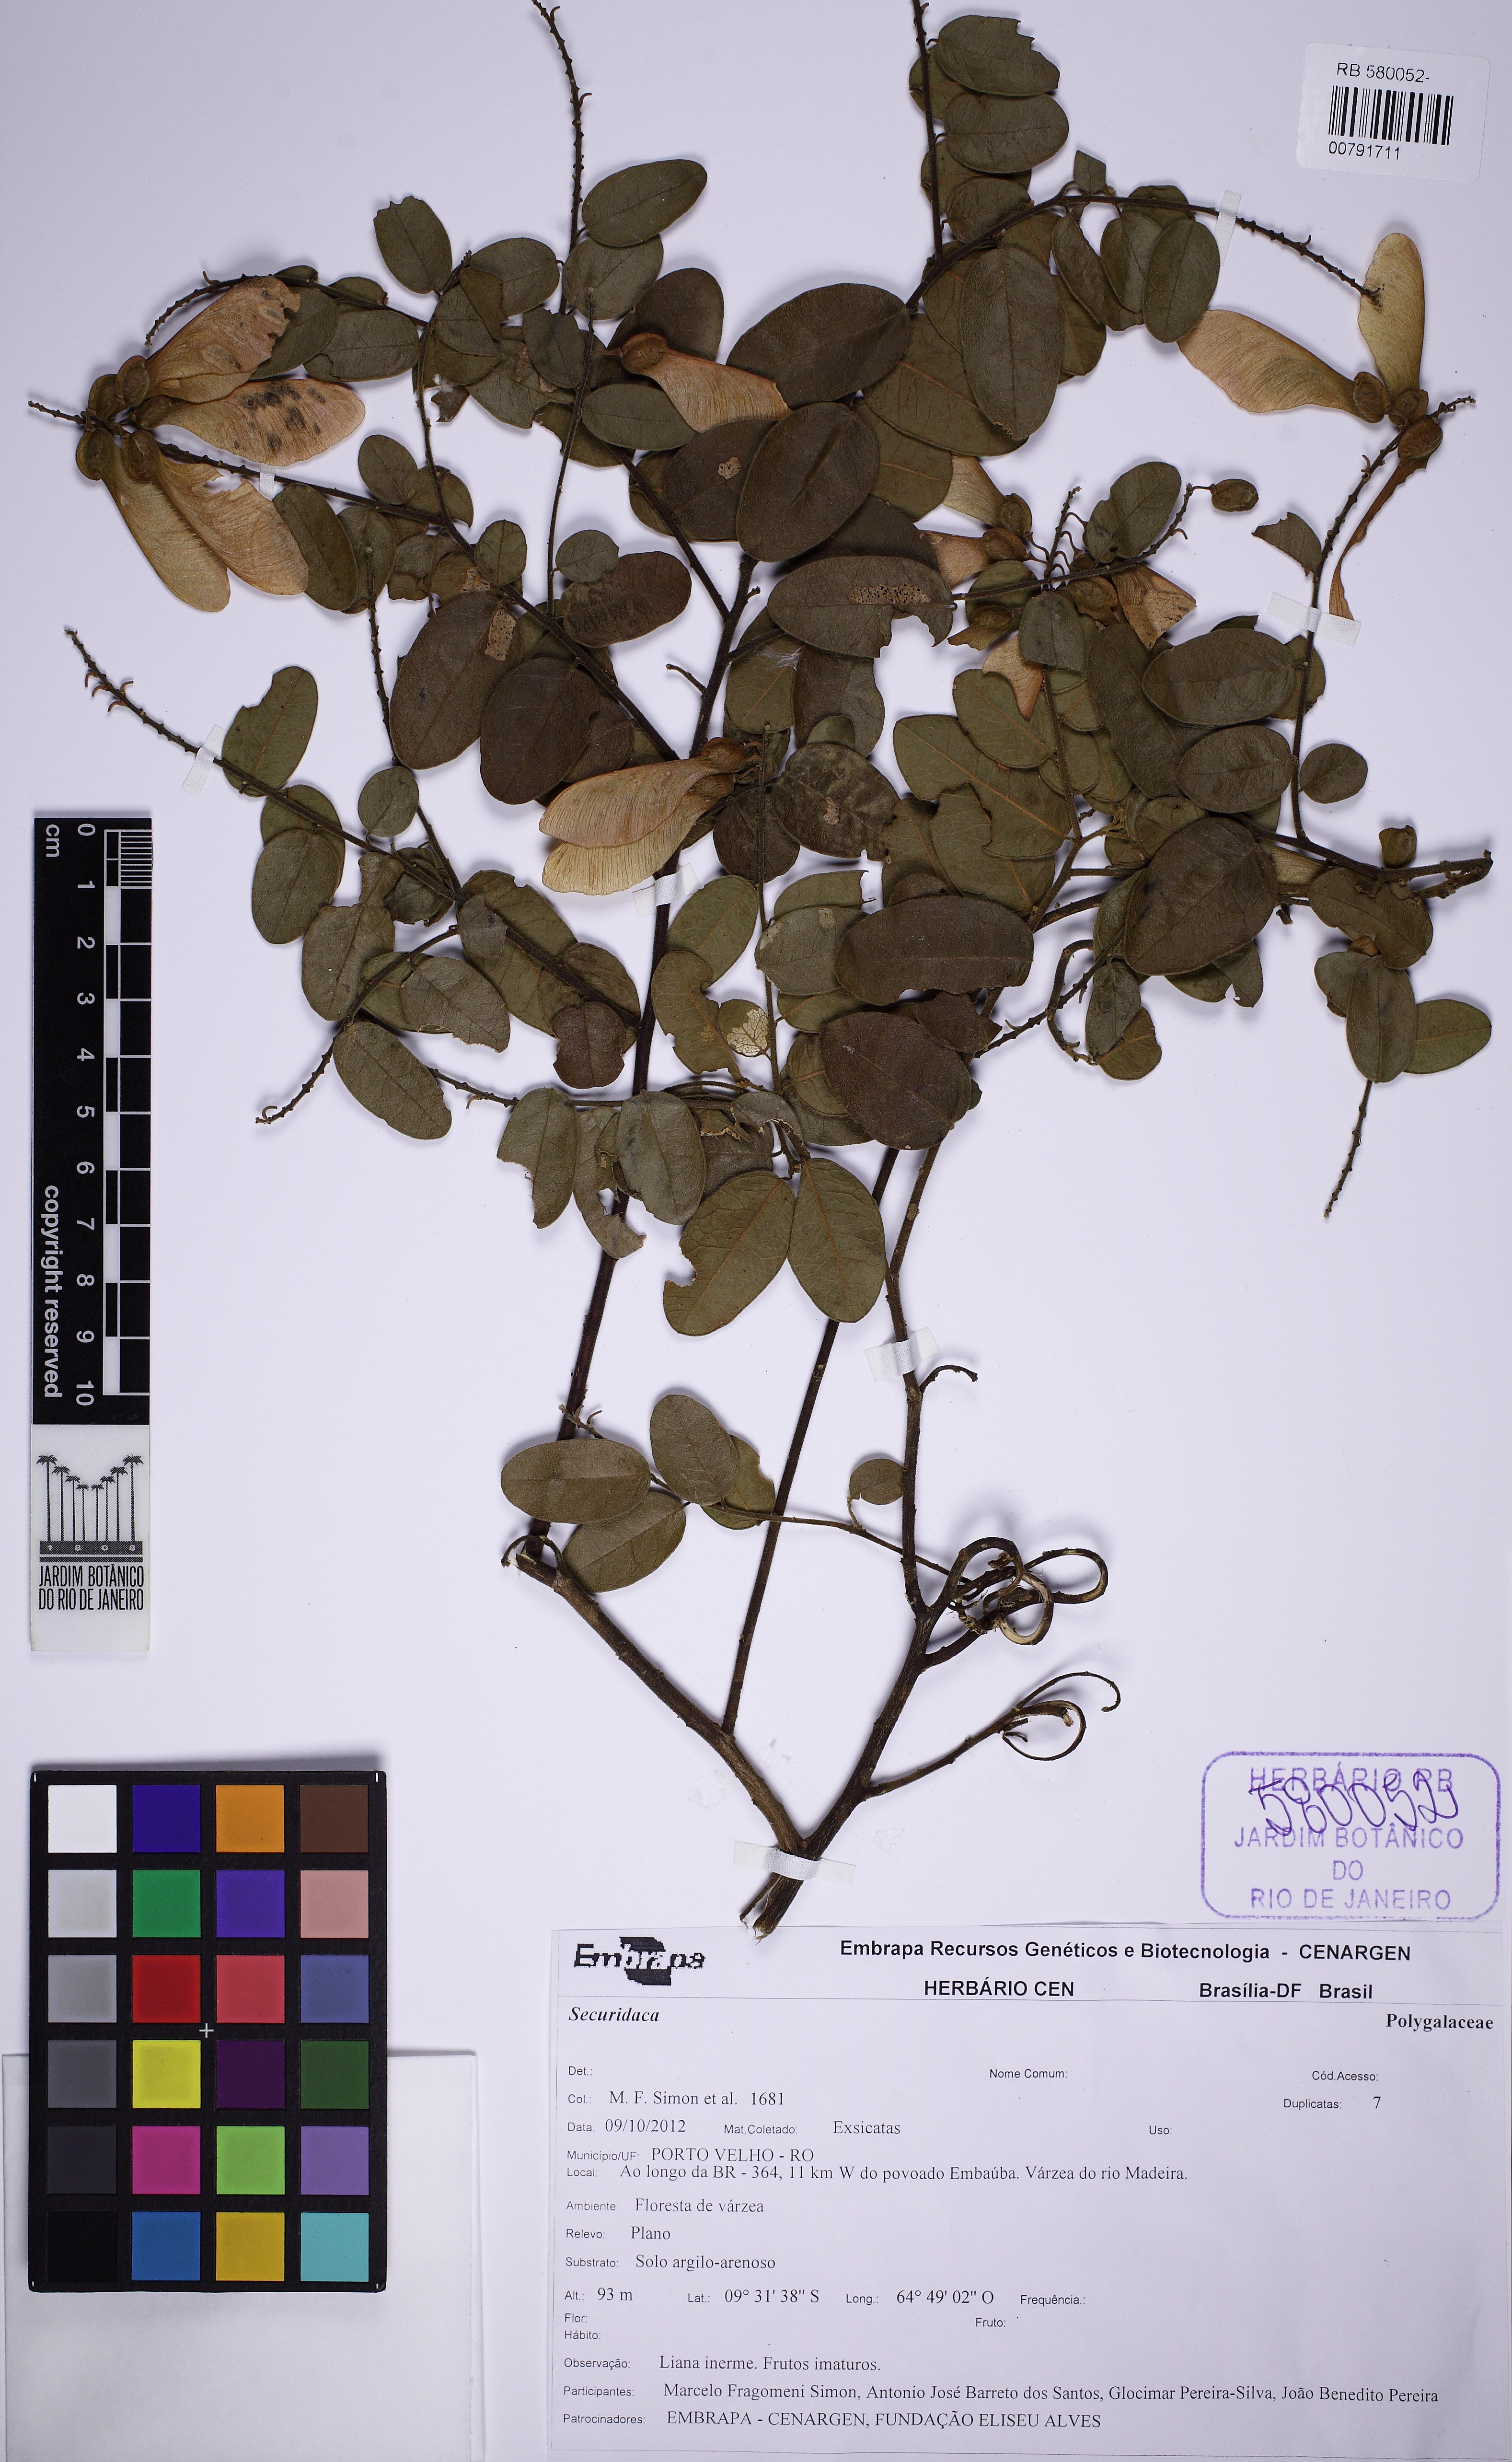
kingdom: Plantae
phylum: Tracheophyta
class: Magnoliopsida
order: Fabales
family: Polygalaceae
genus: Securidaca
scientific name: Securidaca
